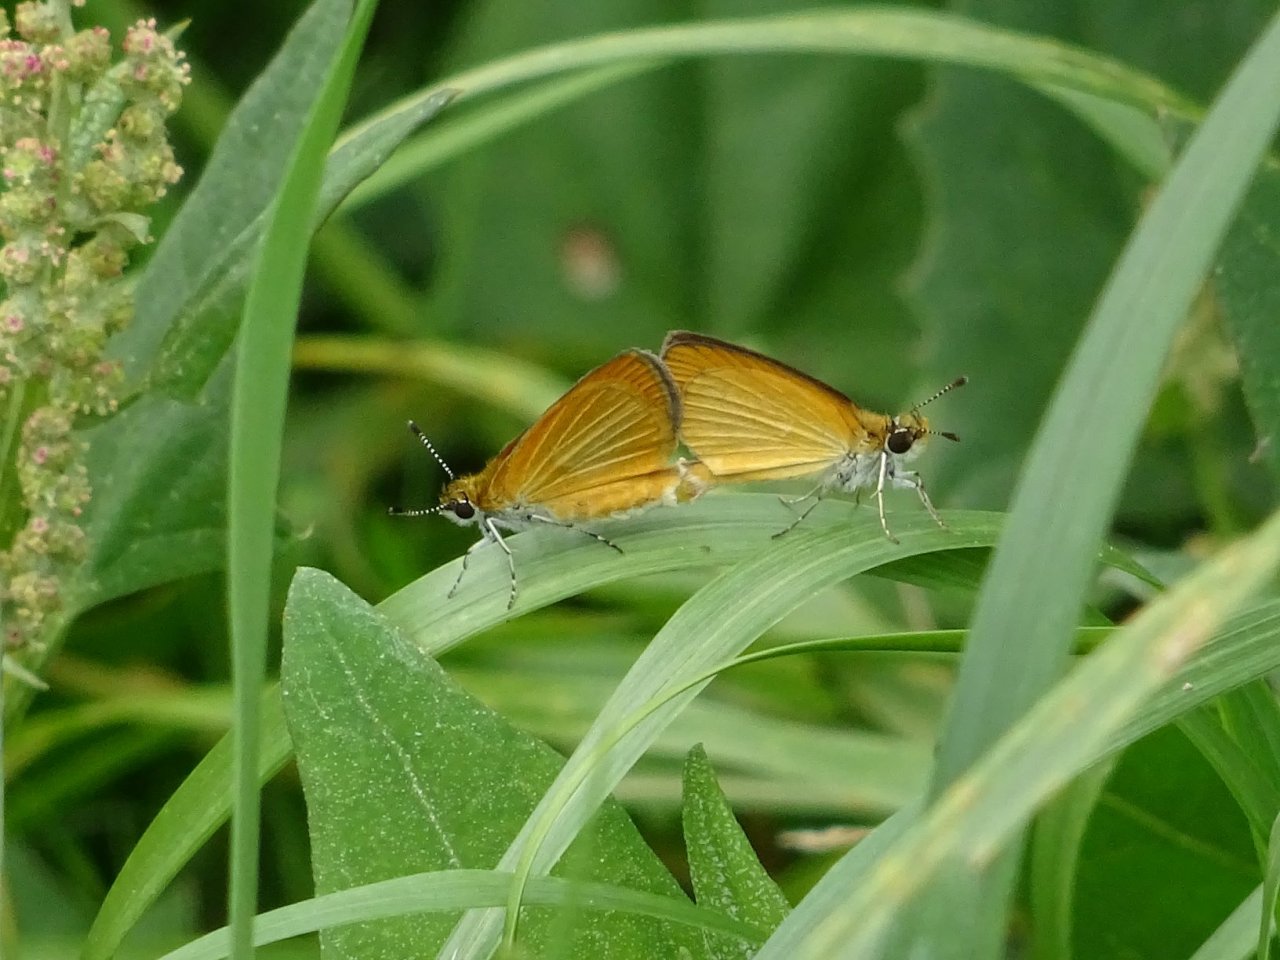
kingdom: Animalia
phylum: Arthropoda
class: Insecta
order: Lepidoptera
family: Hesperiidae
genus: Ancyloxypha
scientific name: Ancyloxypha numitor
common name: Least Skipper
